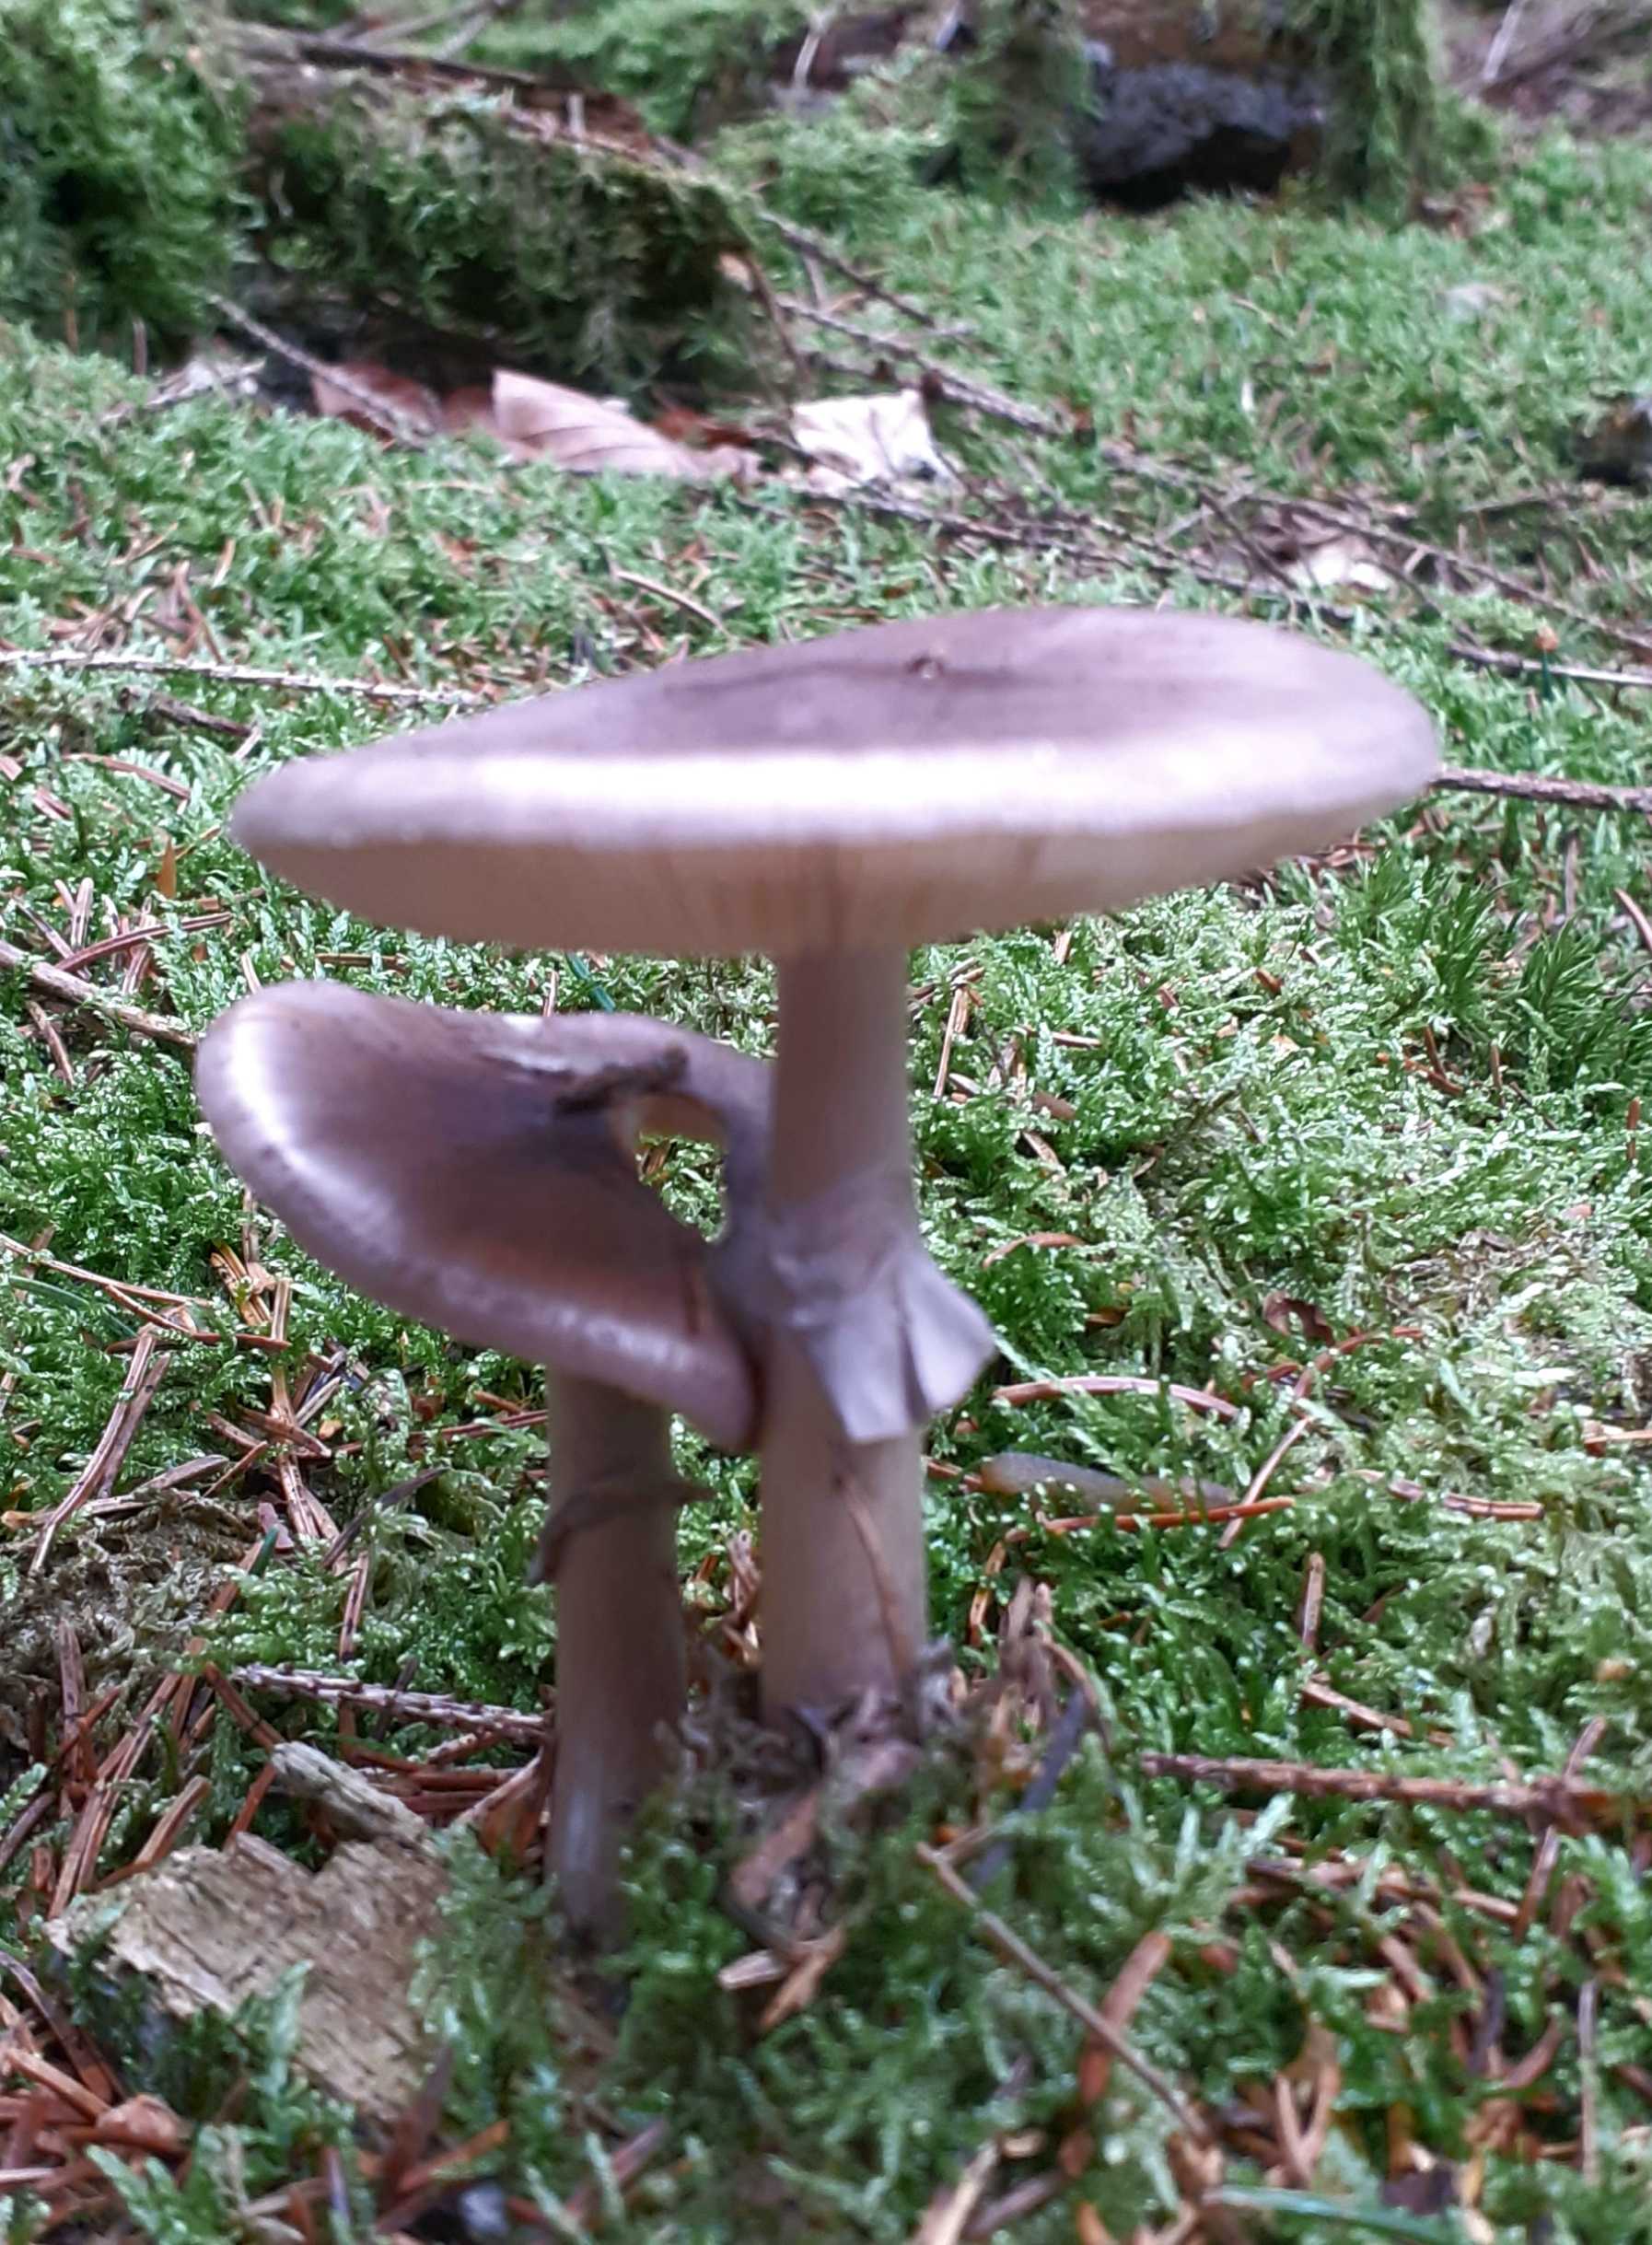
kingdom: Fungi
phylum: Basidiomycota
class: Agaricomycetes
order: Agaricales
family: Amanitaceae
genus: Amanita
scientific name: Amanita porphyria
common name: porfyr-fluesvamp
